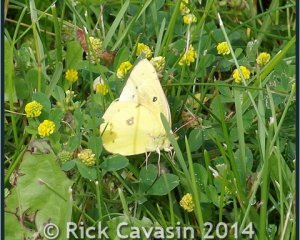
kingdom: Animalia
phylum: Arthropoda
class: Insecta
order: Lepidoptera
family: Pieridae
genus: Colias
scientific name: Colias eurytheme
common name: Orange Sulphur
